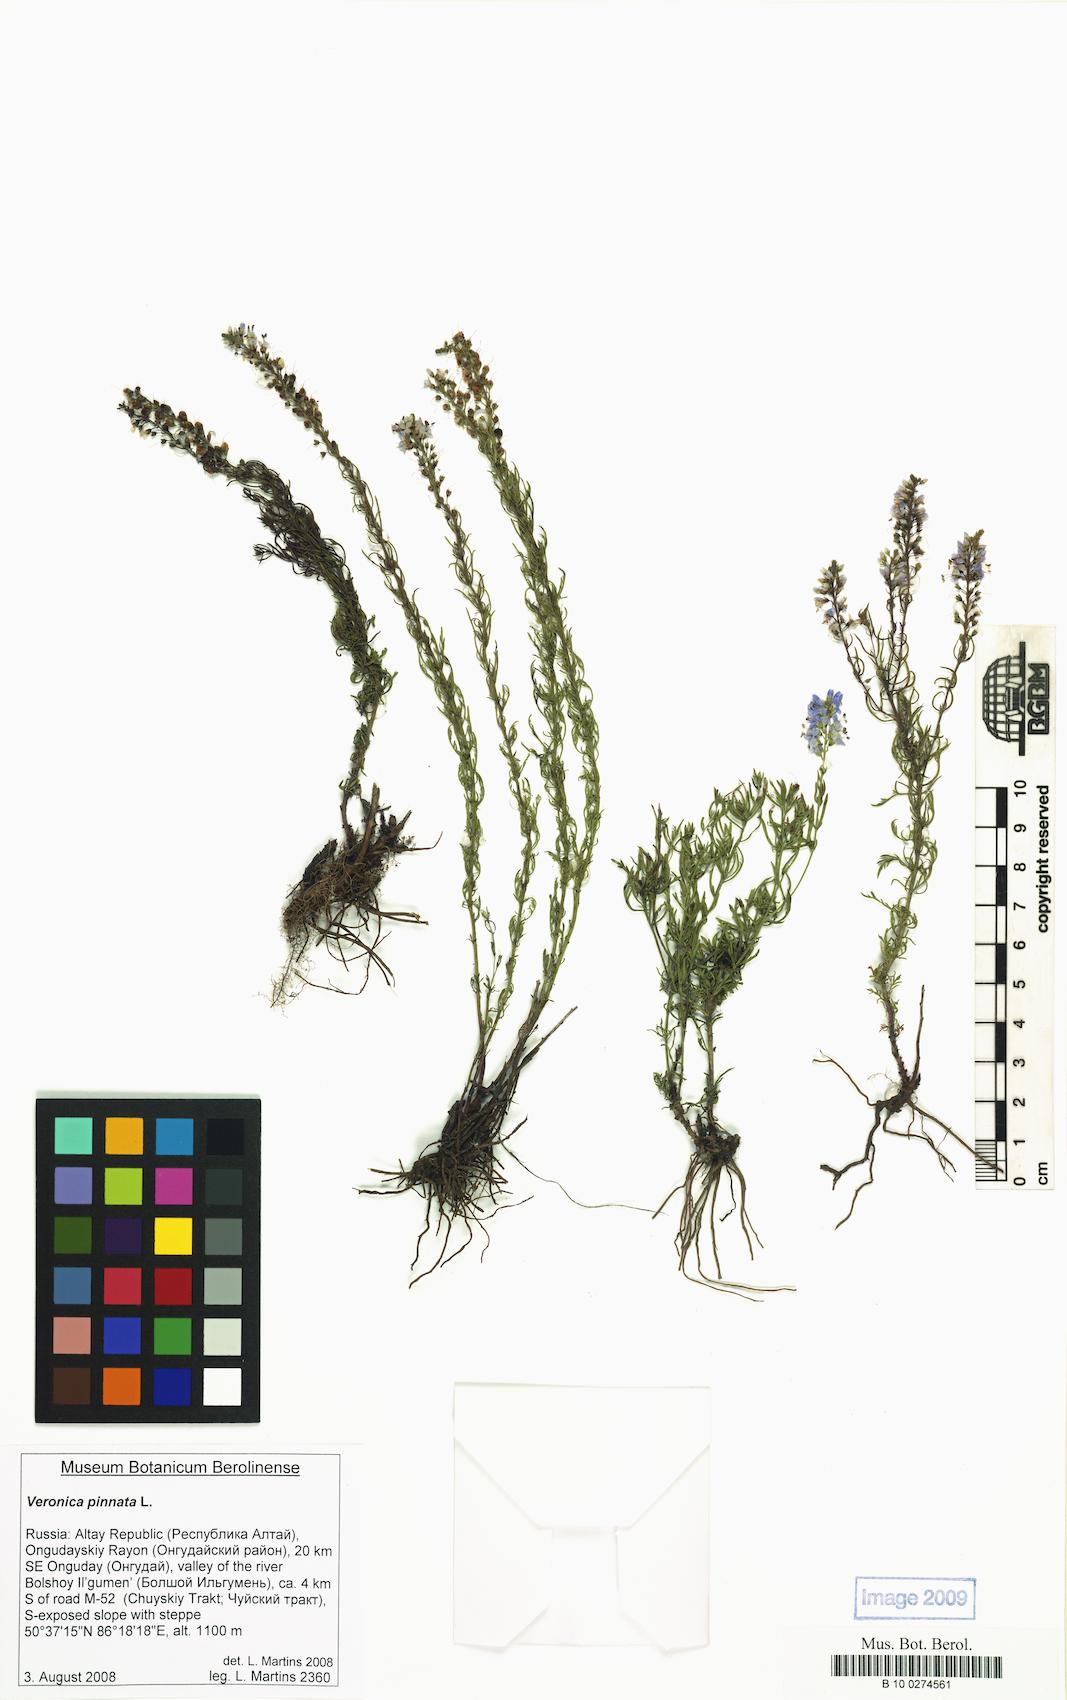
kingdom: Plantae
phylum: Tracheophyta
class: Magnoliopsida
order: Lamiales
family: Plantaginaceae
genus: Veronica
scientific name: Veronica pinnata
